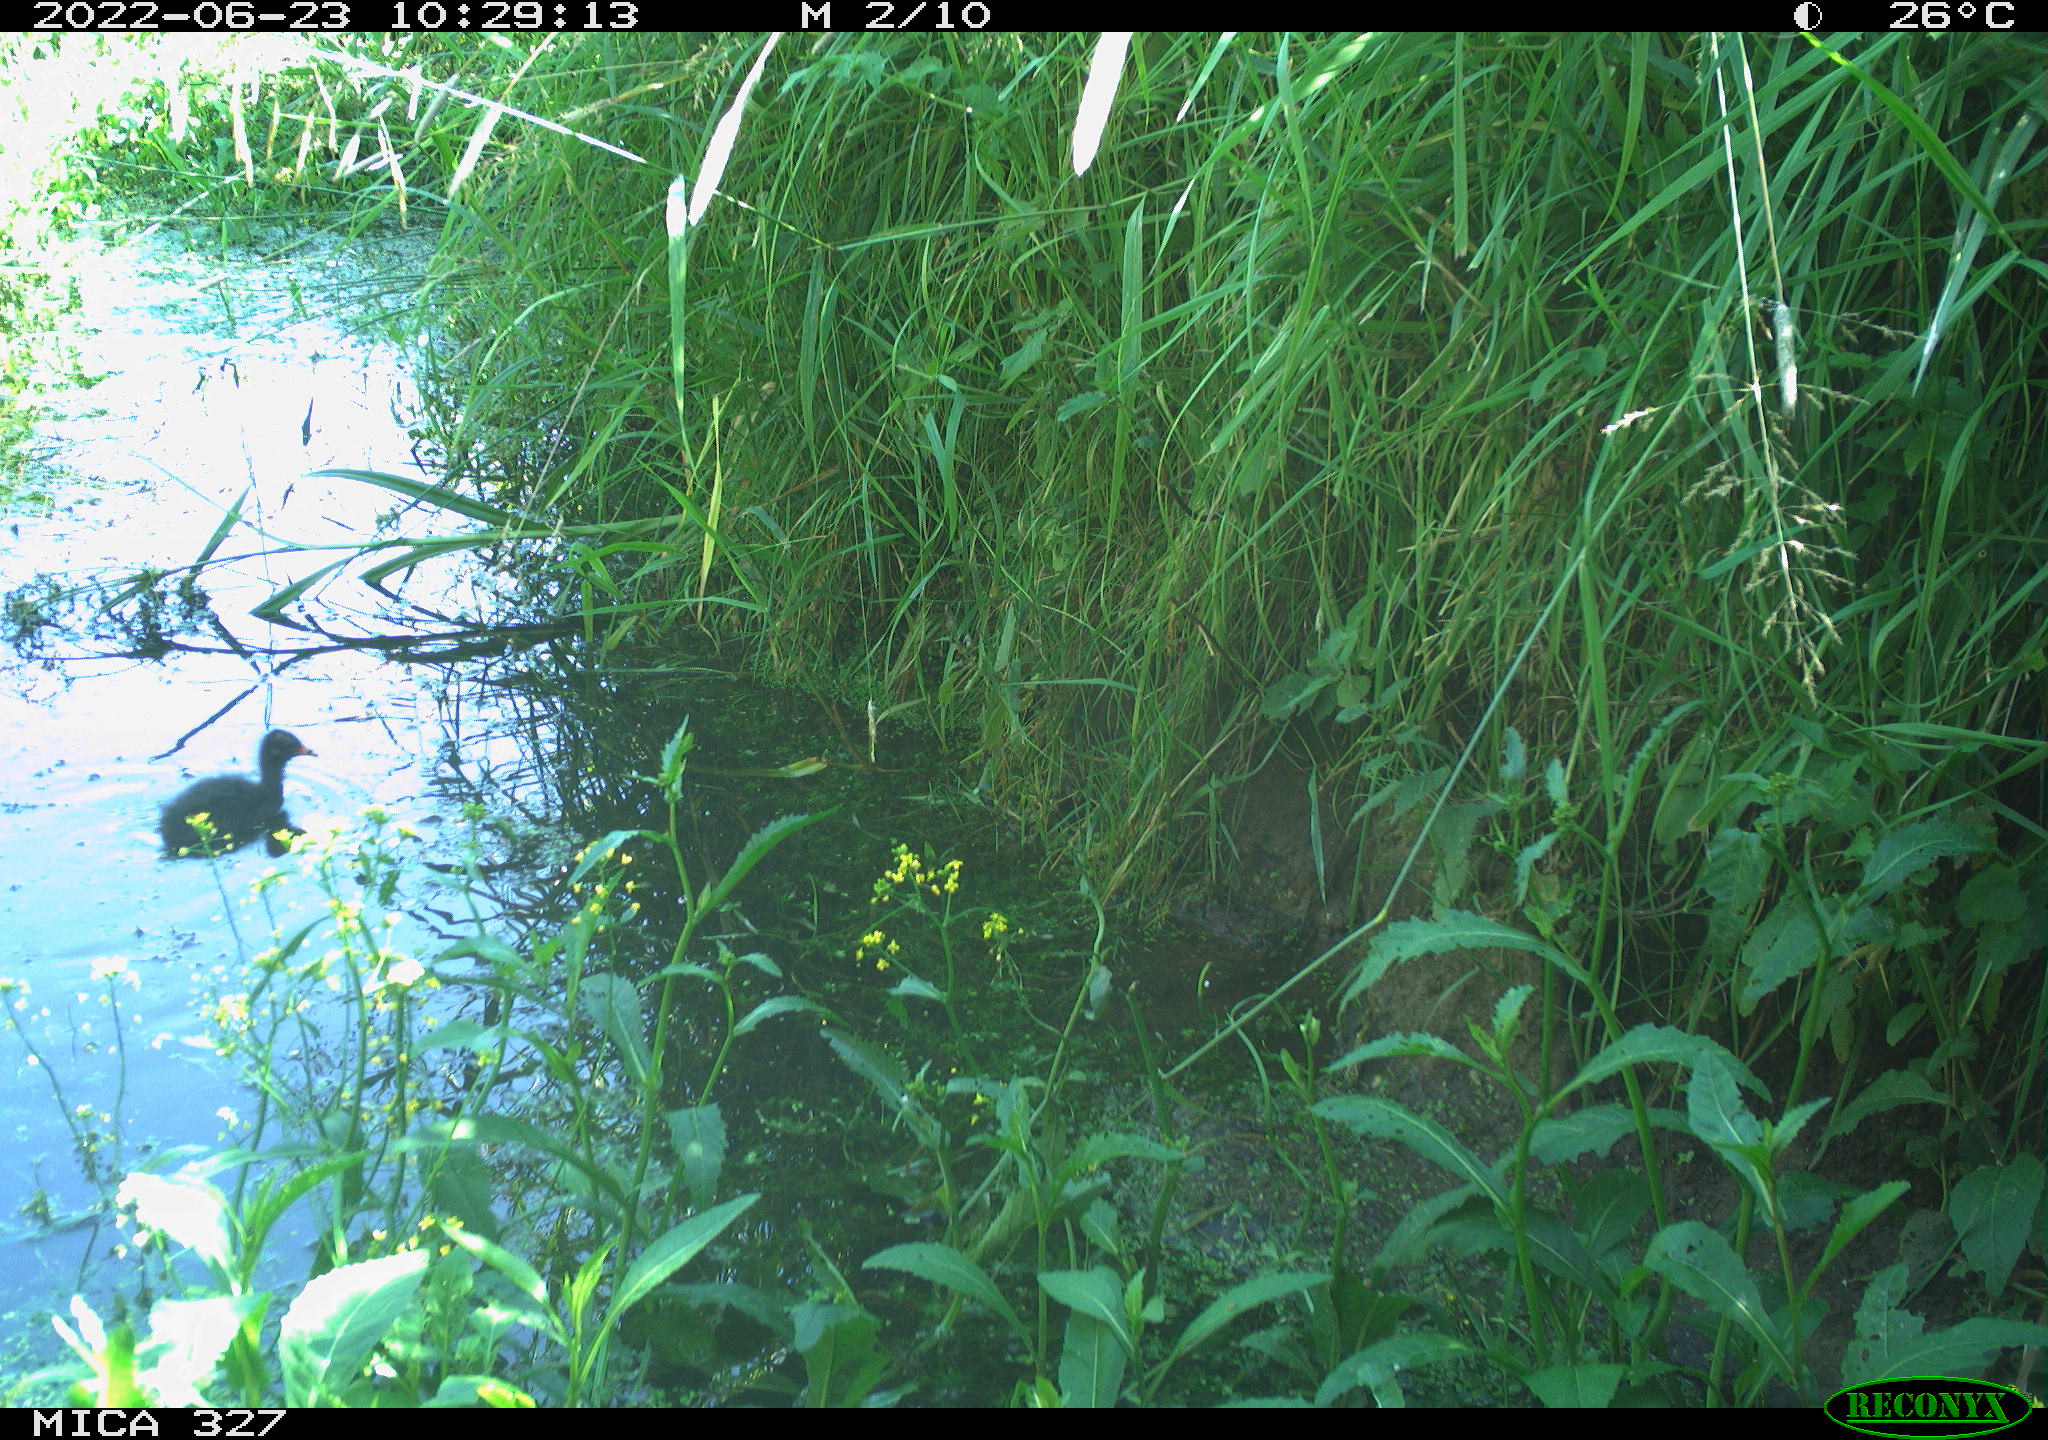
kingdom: Animalia
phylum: Chordata
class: Aves
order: Gruiformes
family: Rallidae
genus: Gallinula
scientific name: Gallinula chloropus
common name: Common moorhen
